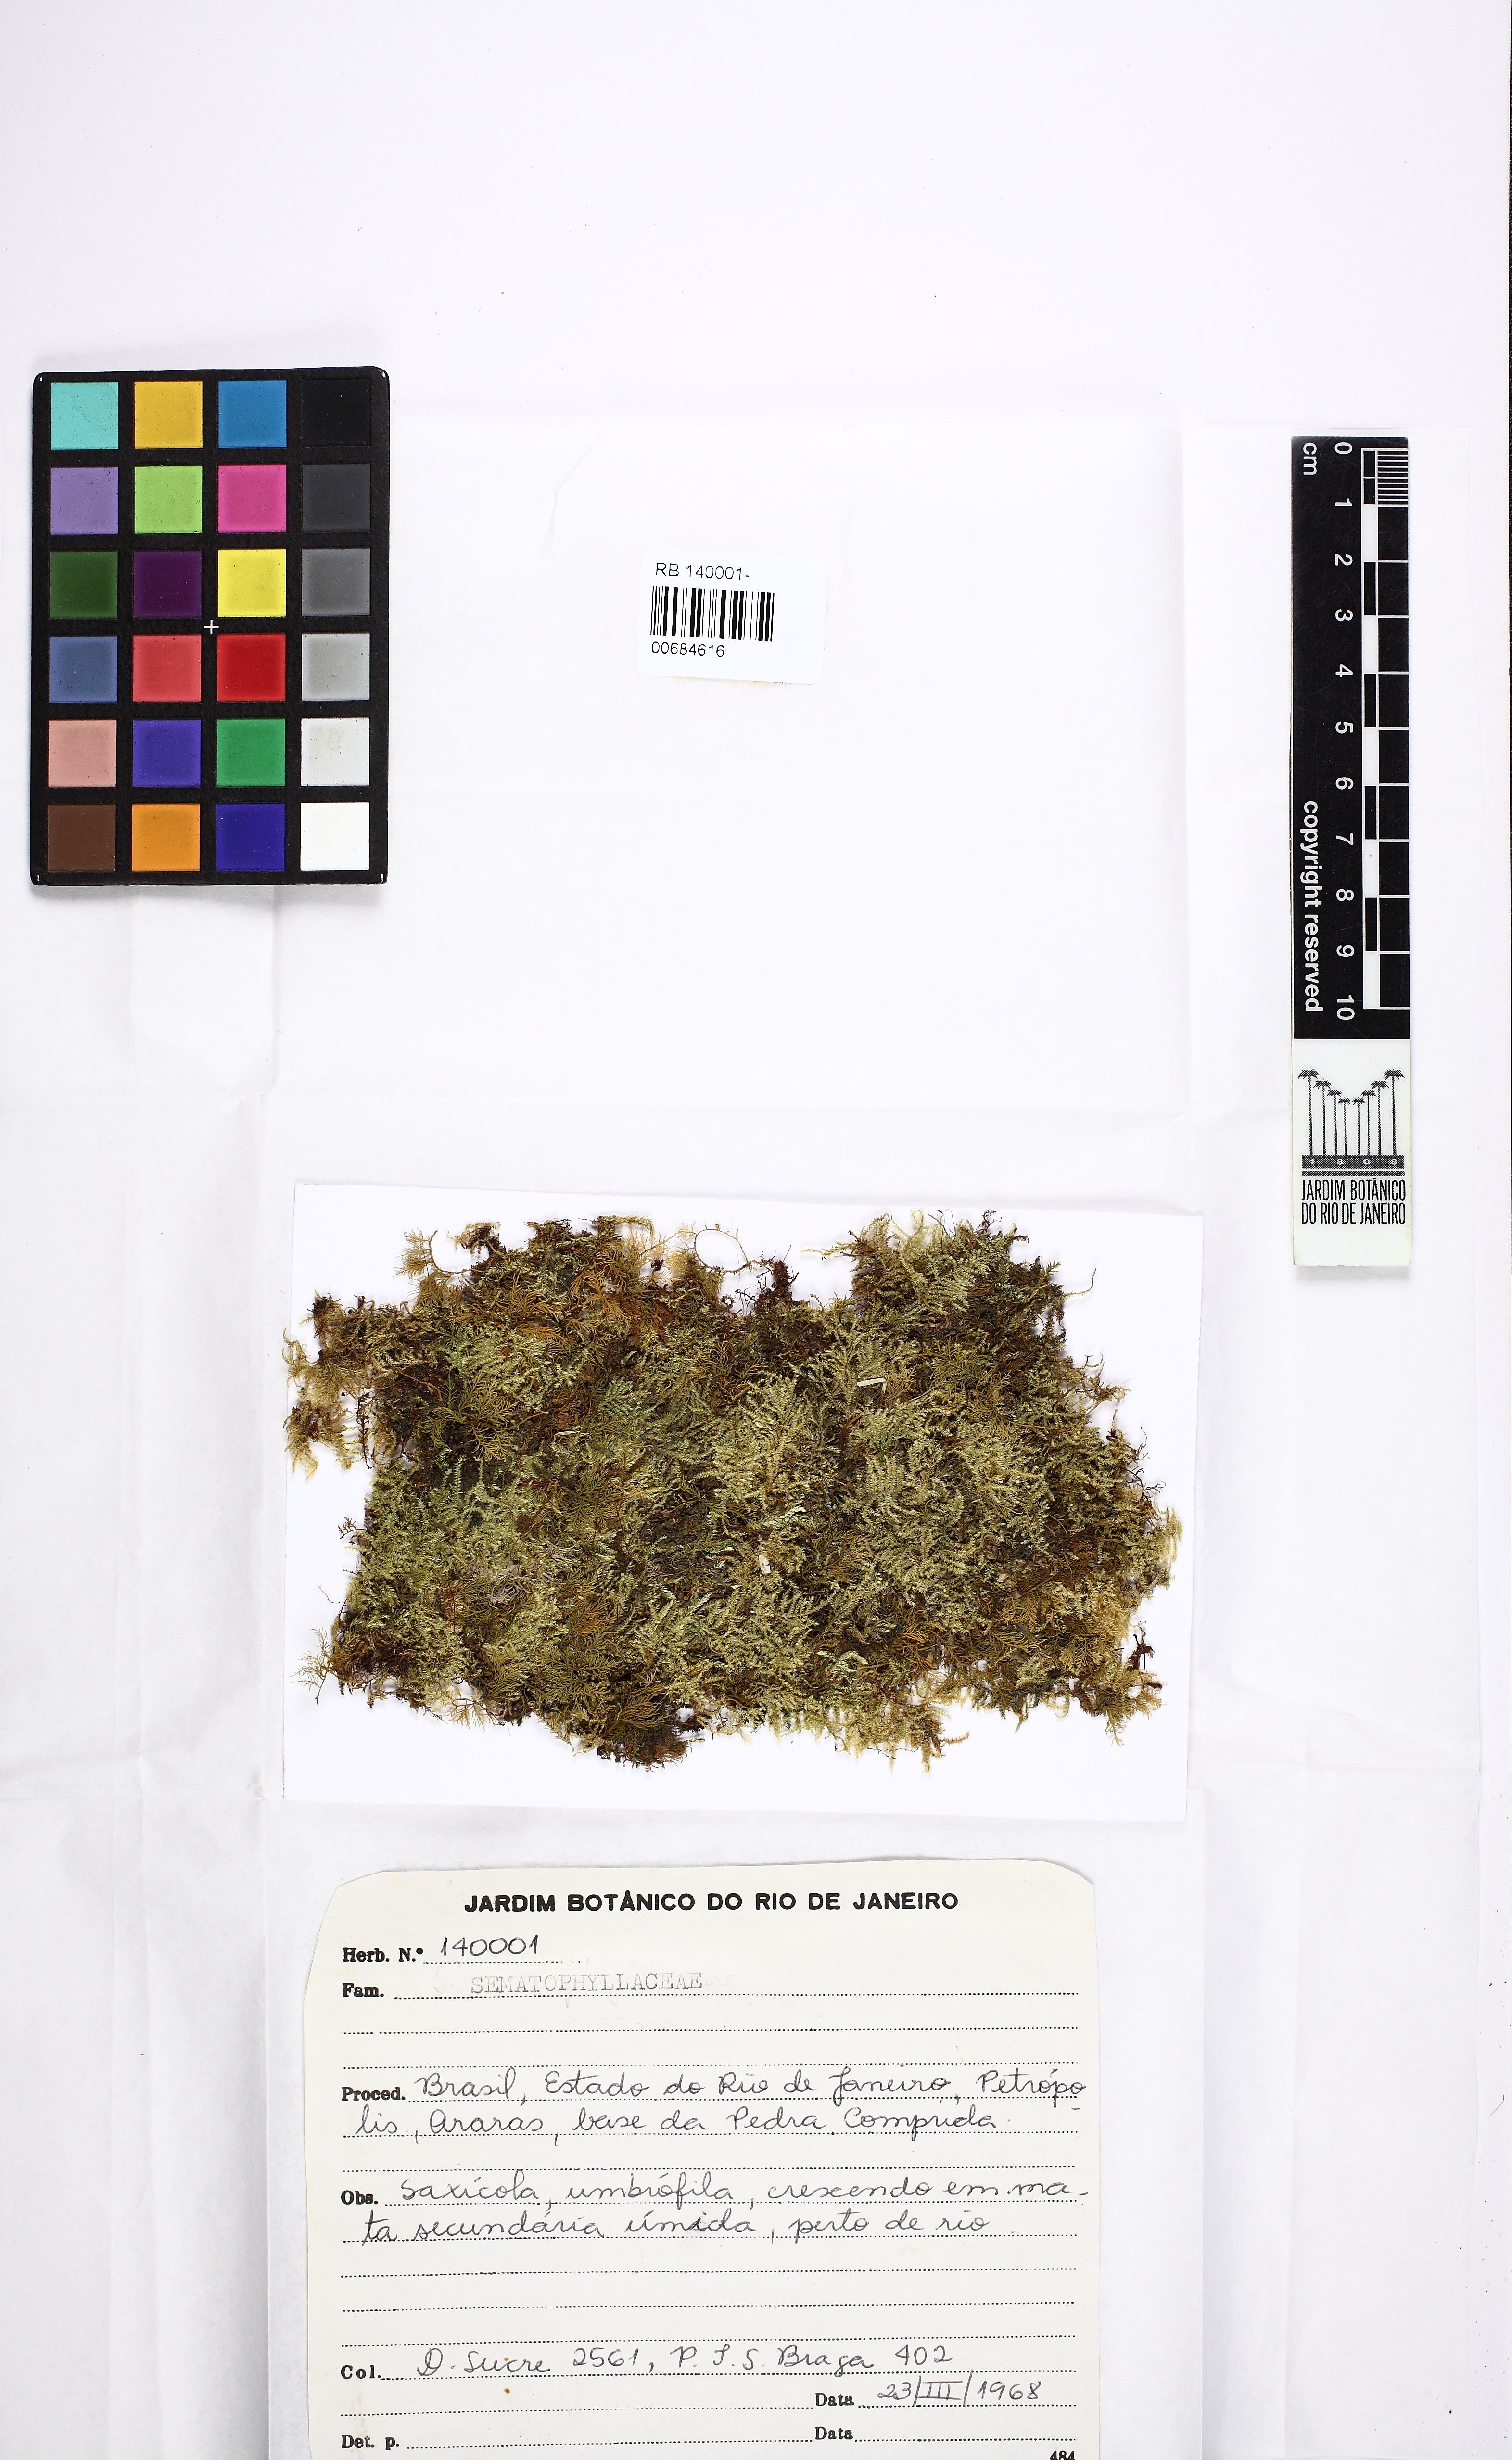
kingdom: Plantae
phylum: Bryophyta
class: Bryopsida
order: Hypnales
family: Hypnaceae
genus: Chryso-hypnum
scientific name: Chryso-hypnum elegantulum
